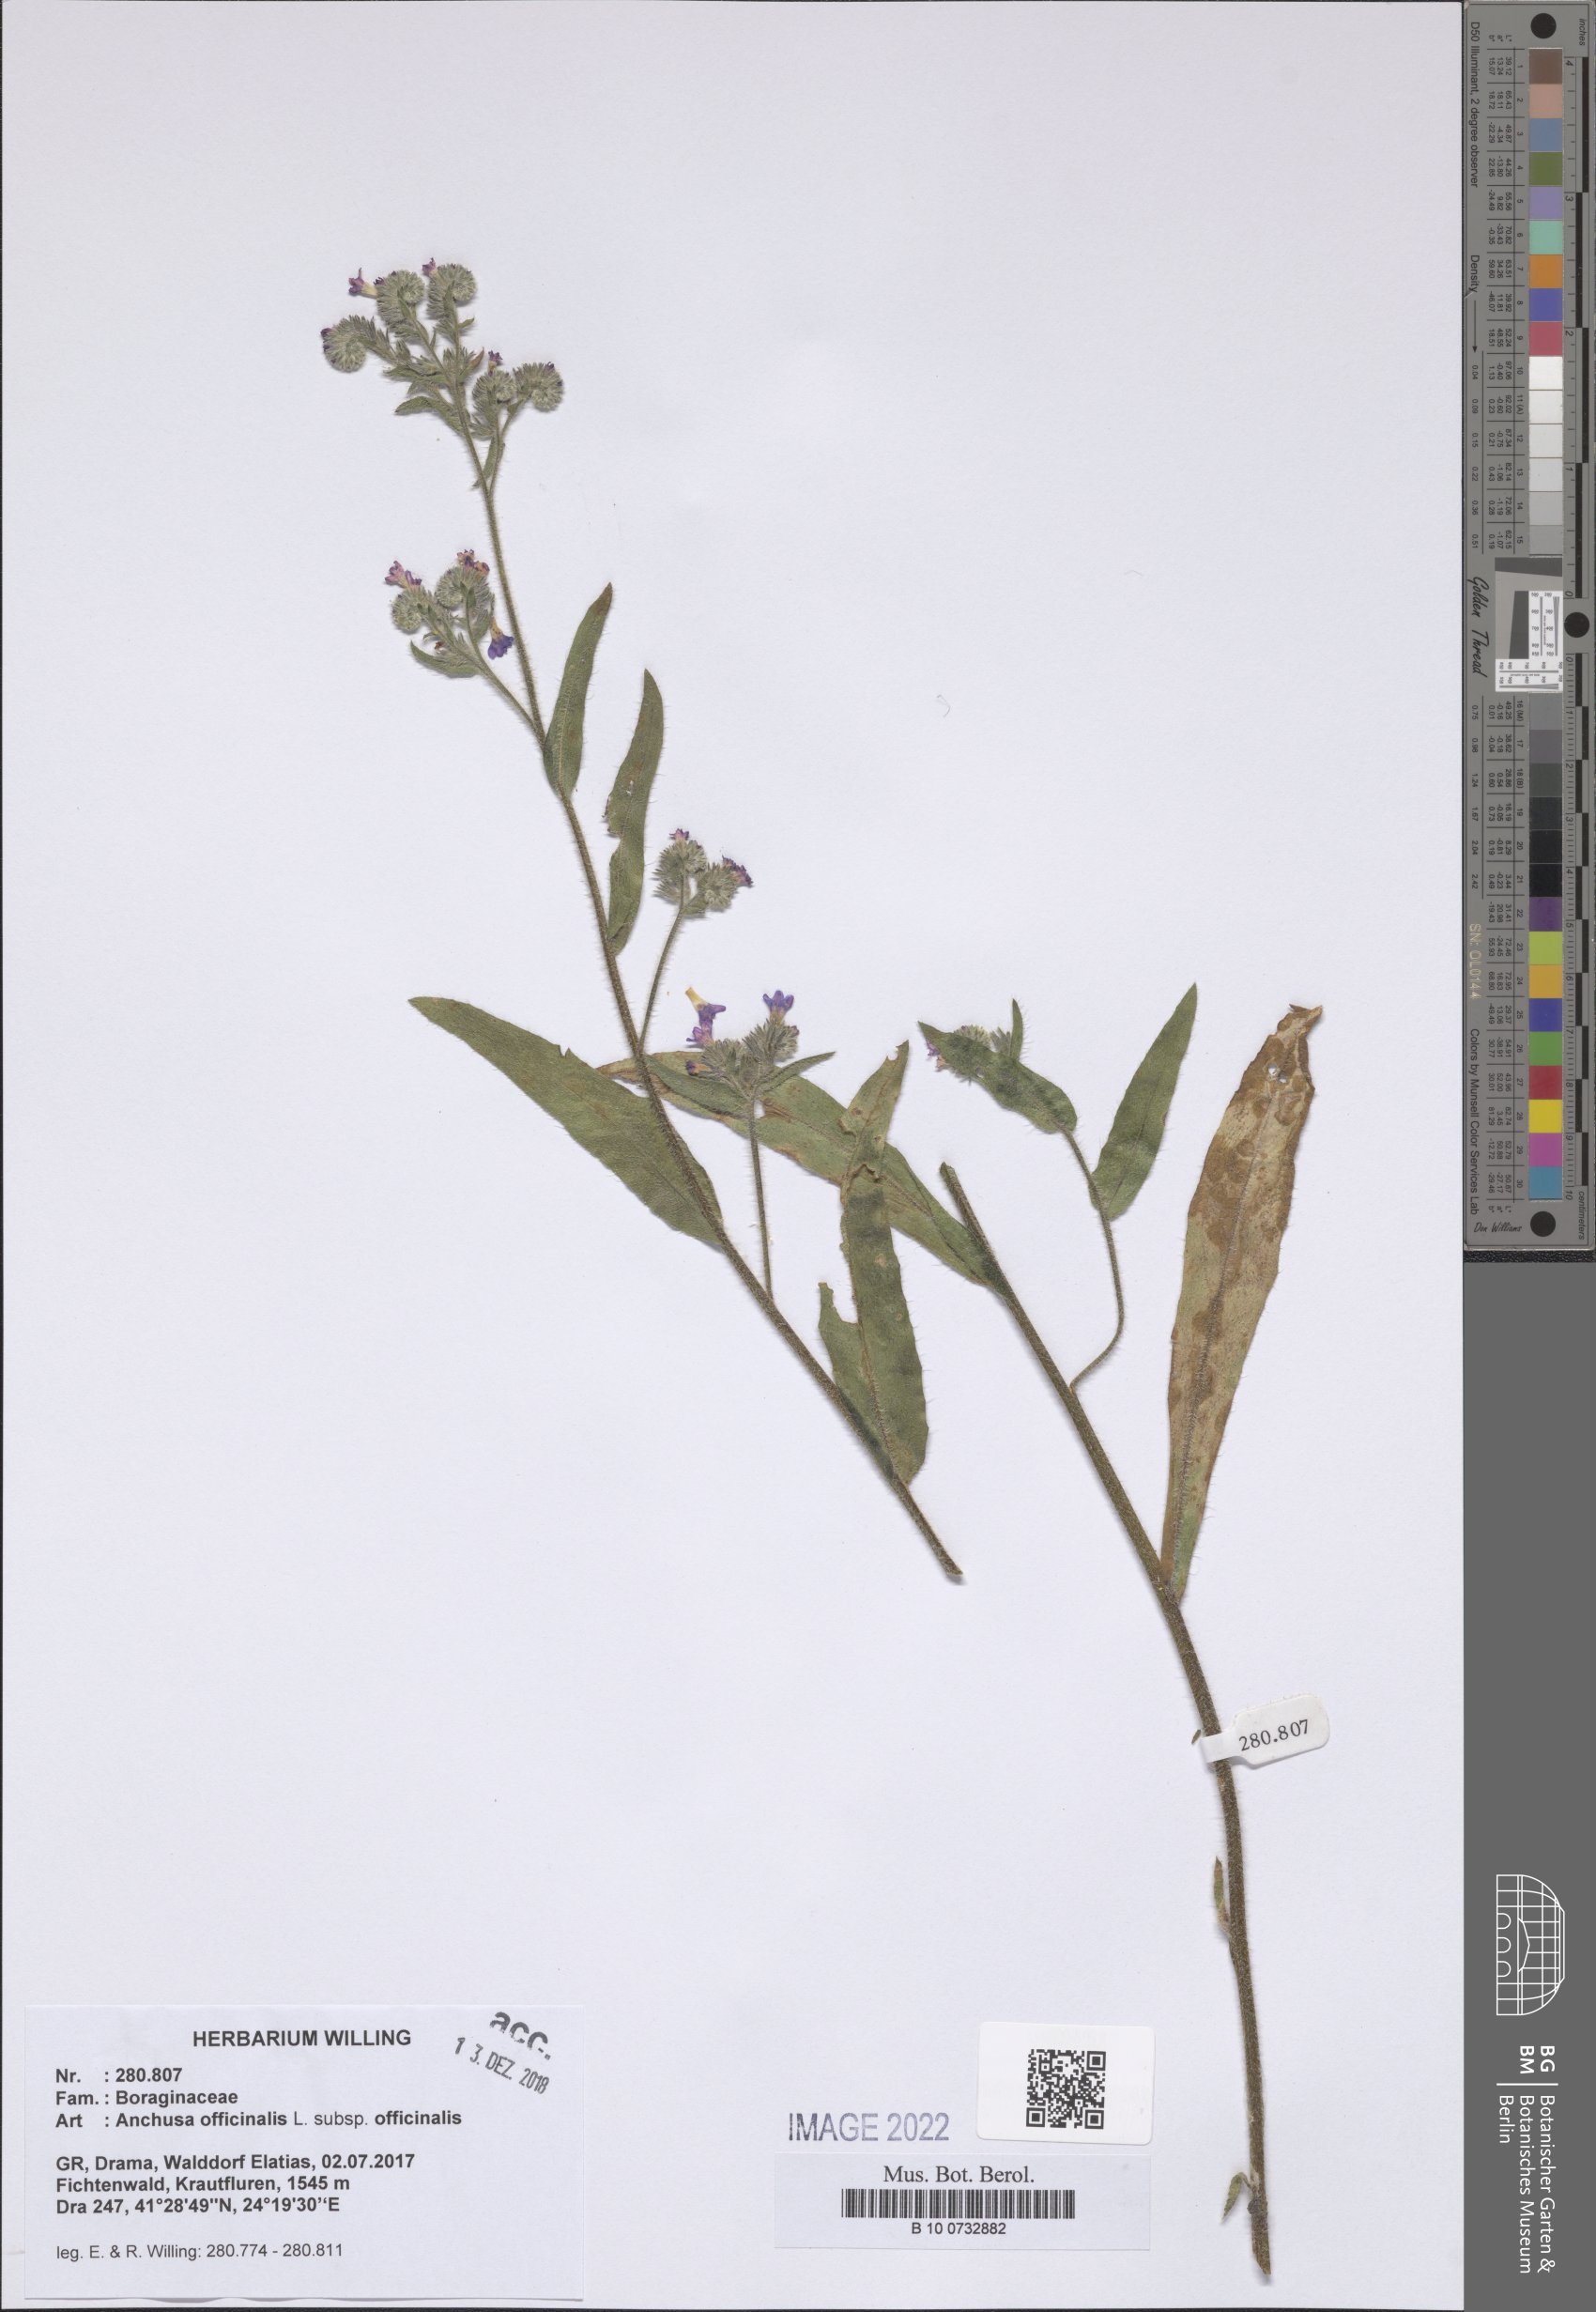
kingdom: Plantae
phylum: Tracheophyta
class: Magnoliopsida
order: Boraginales
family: Boraginaceae
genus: Anchusa
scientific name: Anchusa officinalis
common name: Alkanet
